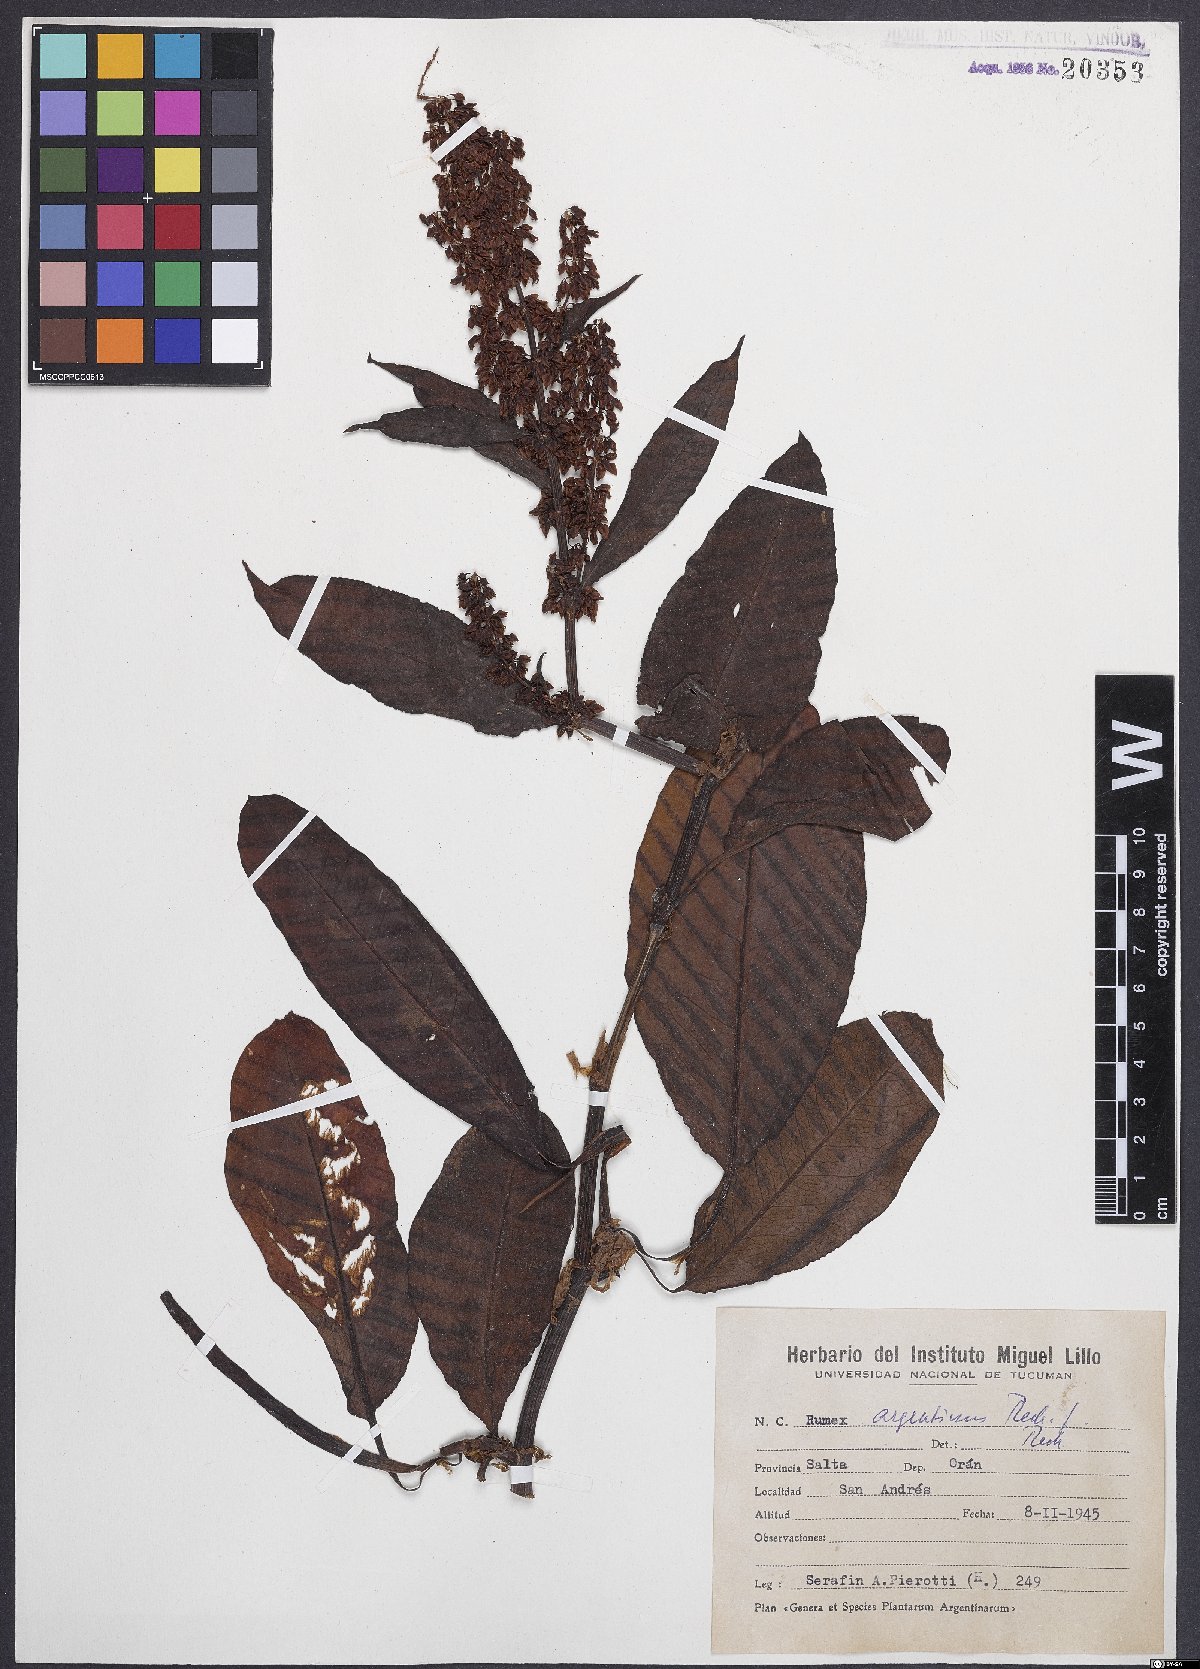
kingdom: Plantae
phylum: Tracheophyta
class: Magnoliopsida
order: Caryophyllales
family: Polygonaceae
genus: Rumex
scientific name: Rumex argentinus
